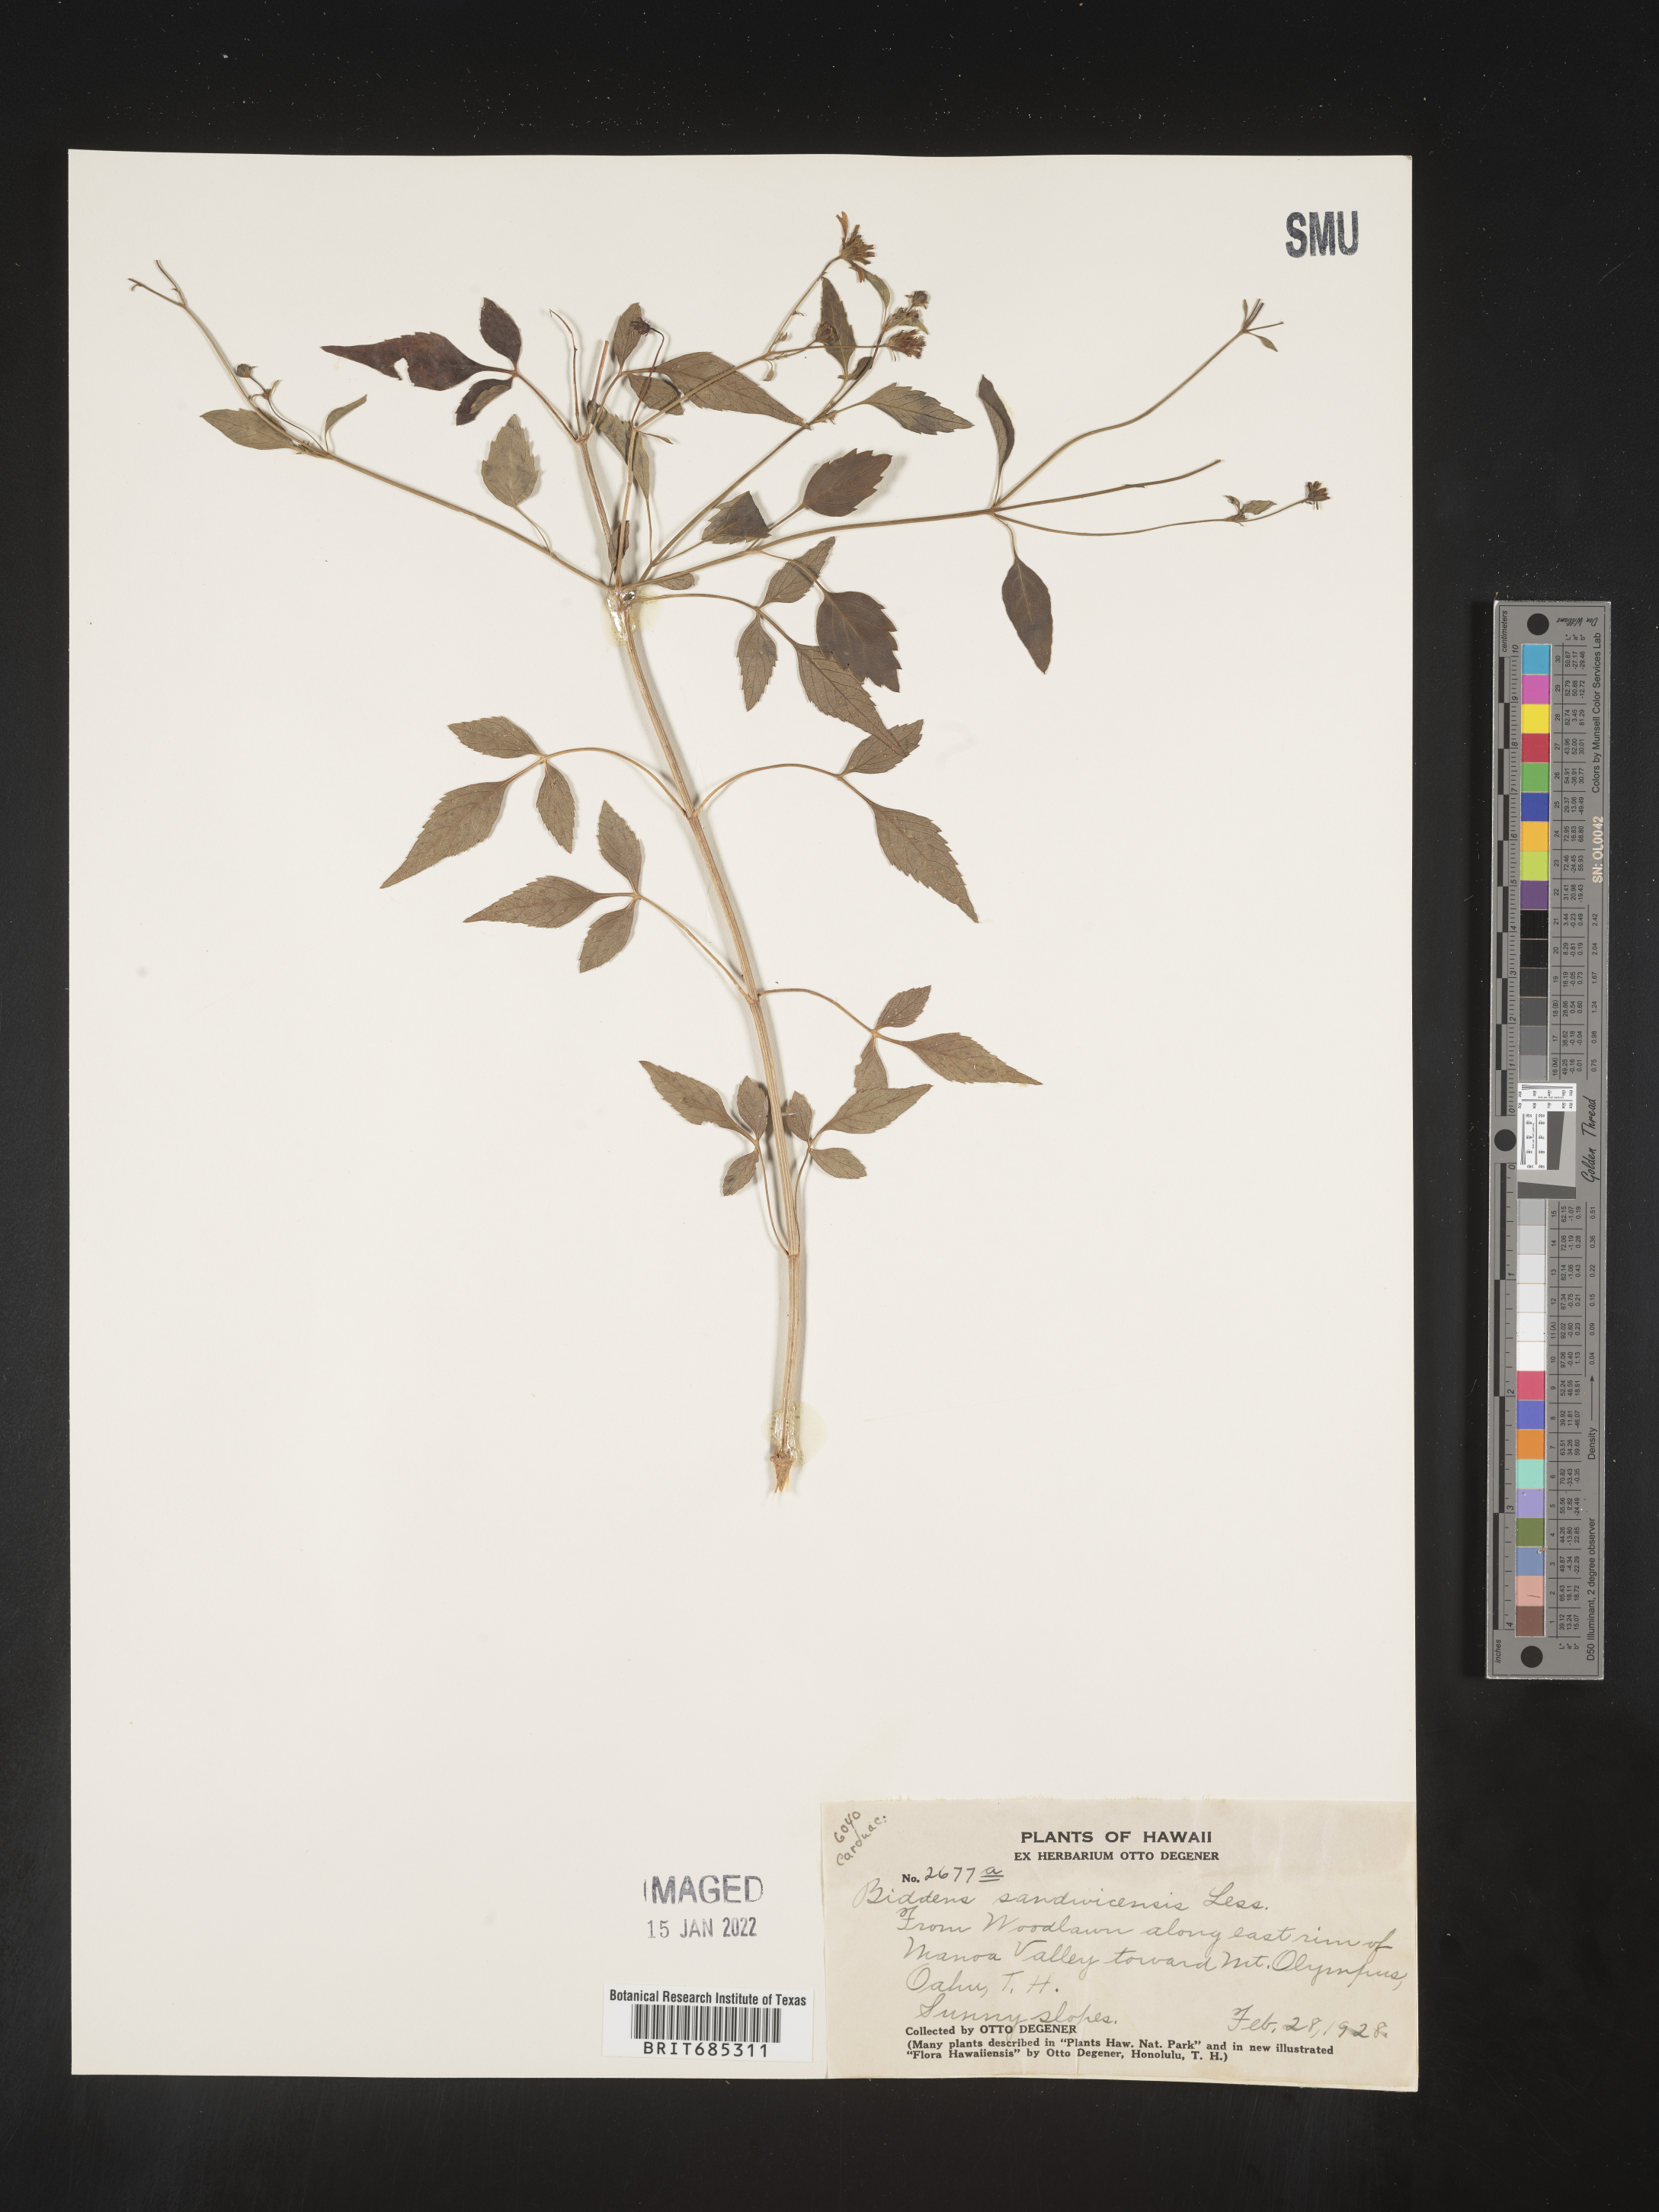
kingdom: Plantae
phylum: Tracheophyta
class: Magnoliopsida
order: Asterales
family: Asteraceae
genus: Bidens
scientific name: Bidens
